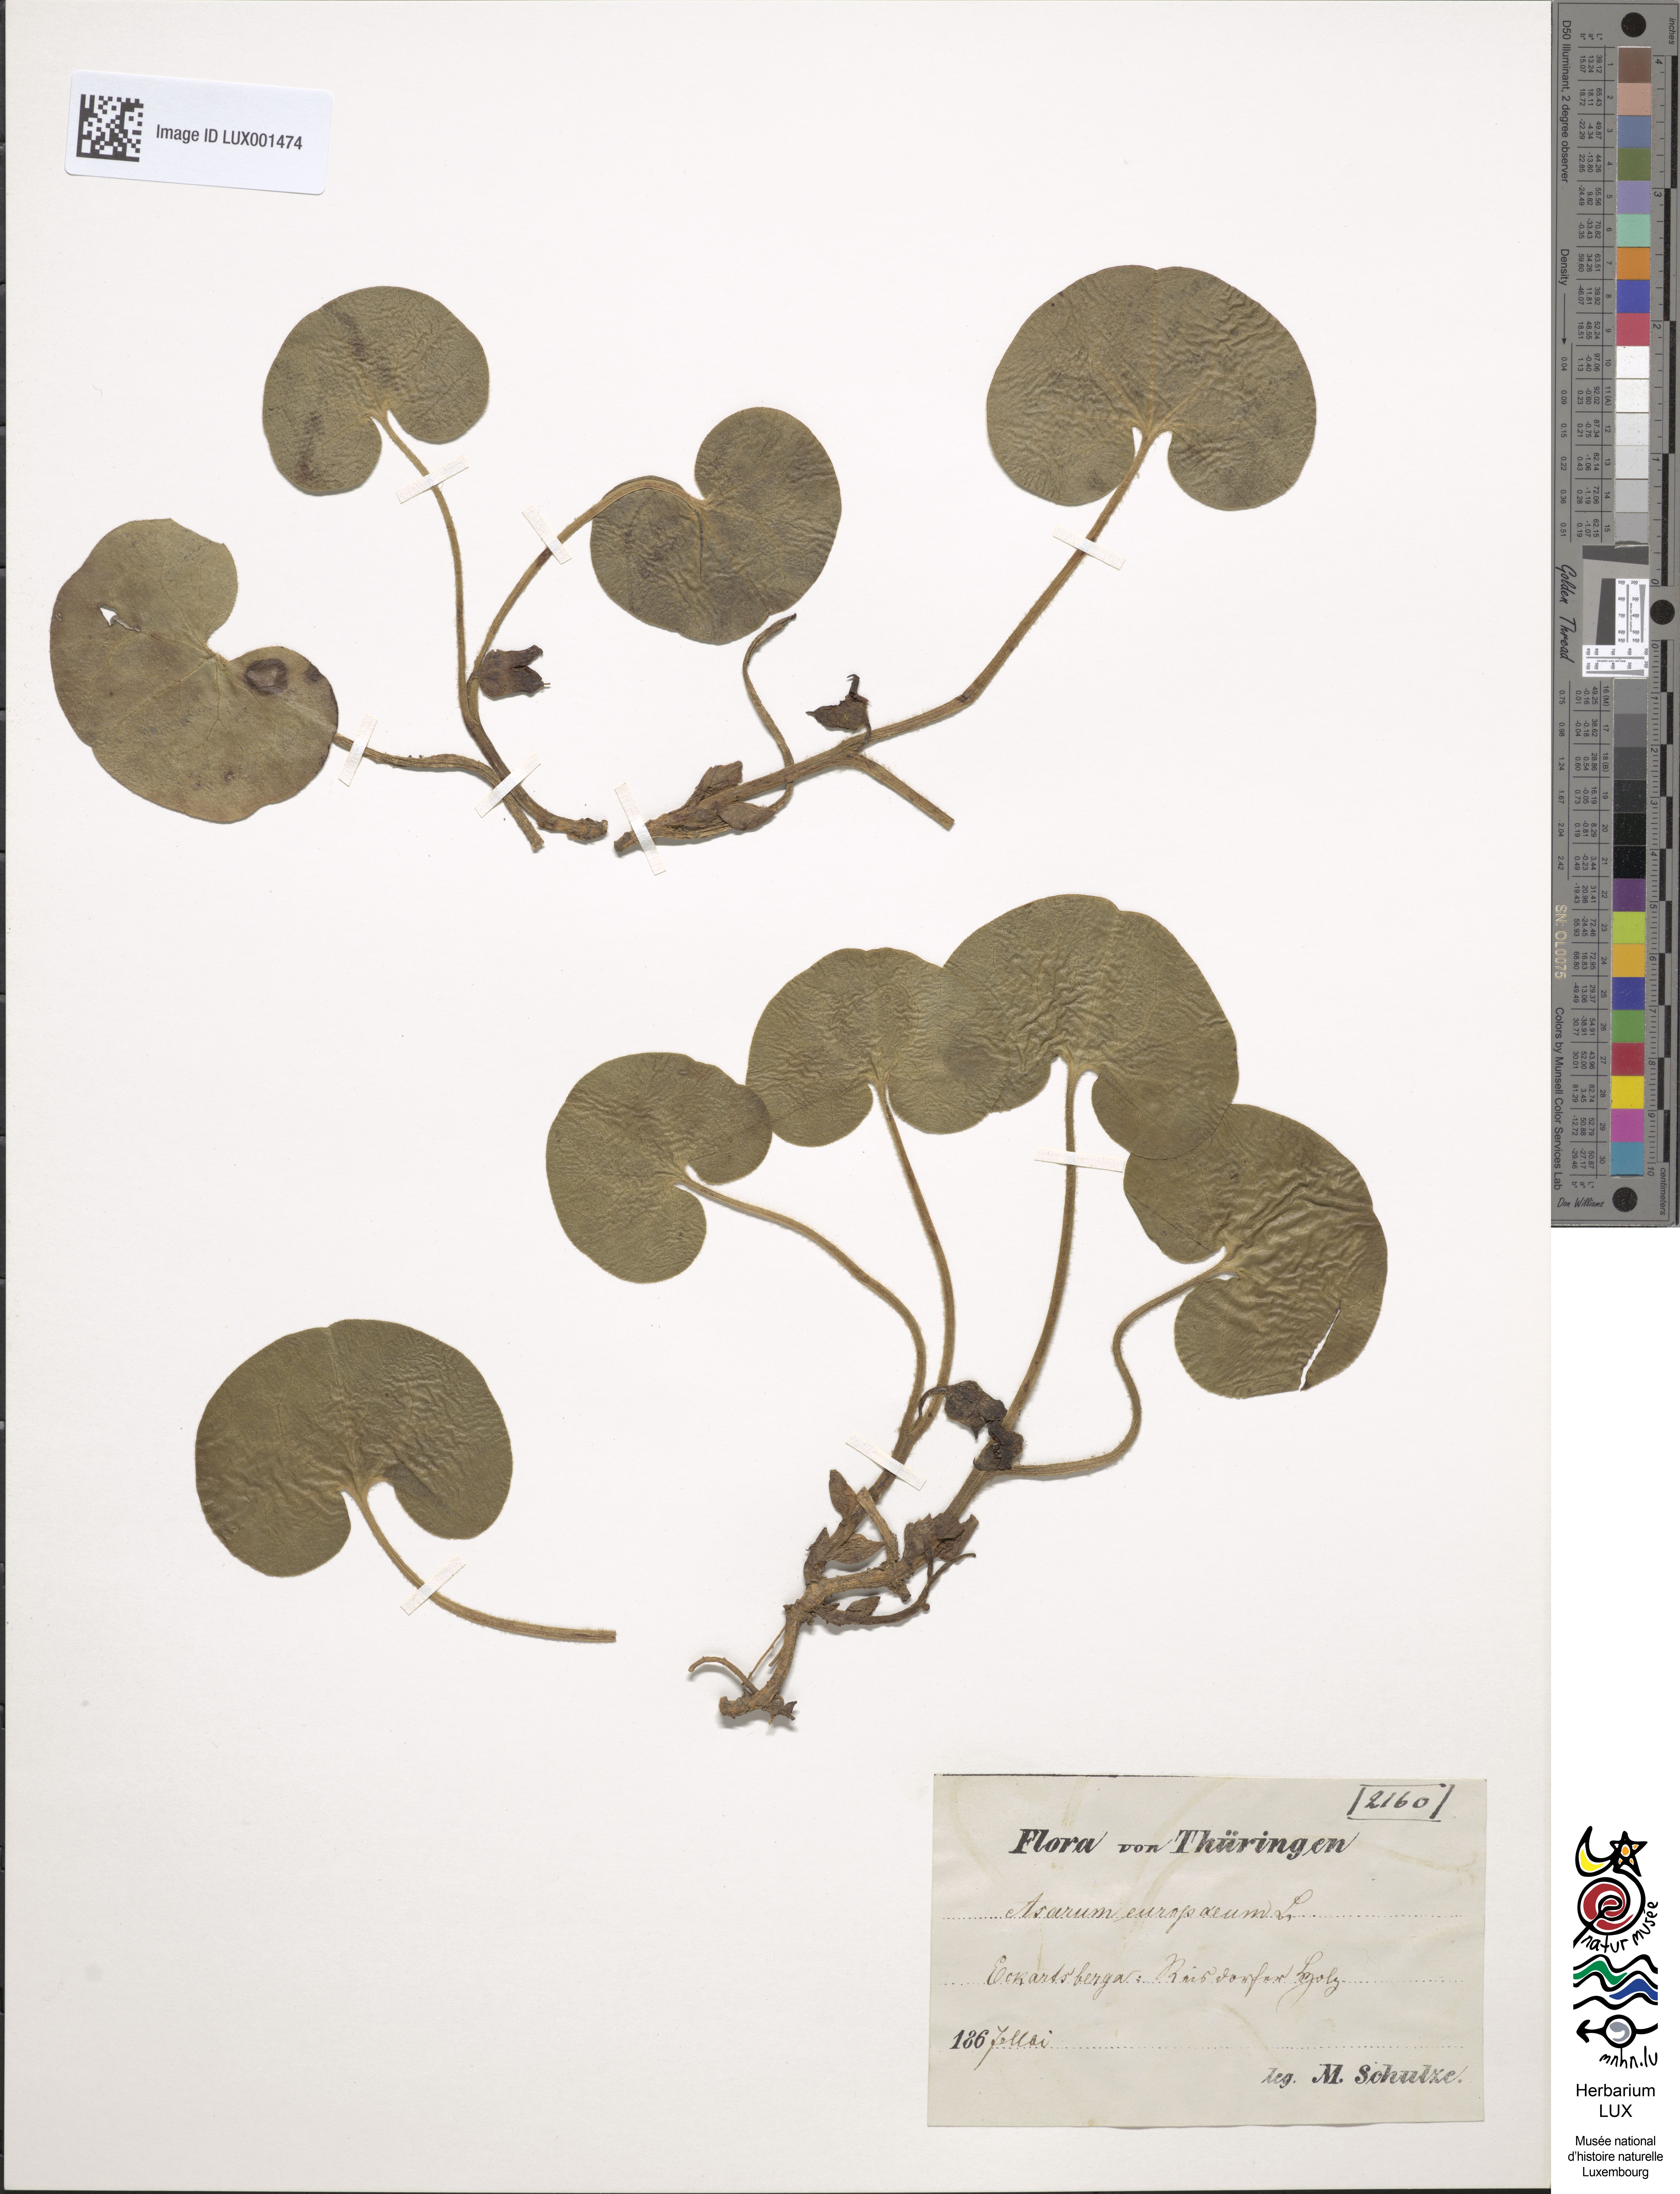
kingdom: Plantae
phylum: Tracheophyta
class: Magnoliopsida
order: Piperales
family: Aristolochiaceae
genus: Asarum
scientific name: Asarum europaeum
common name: Asarabacca
